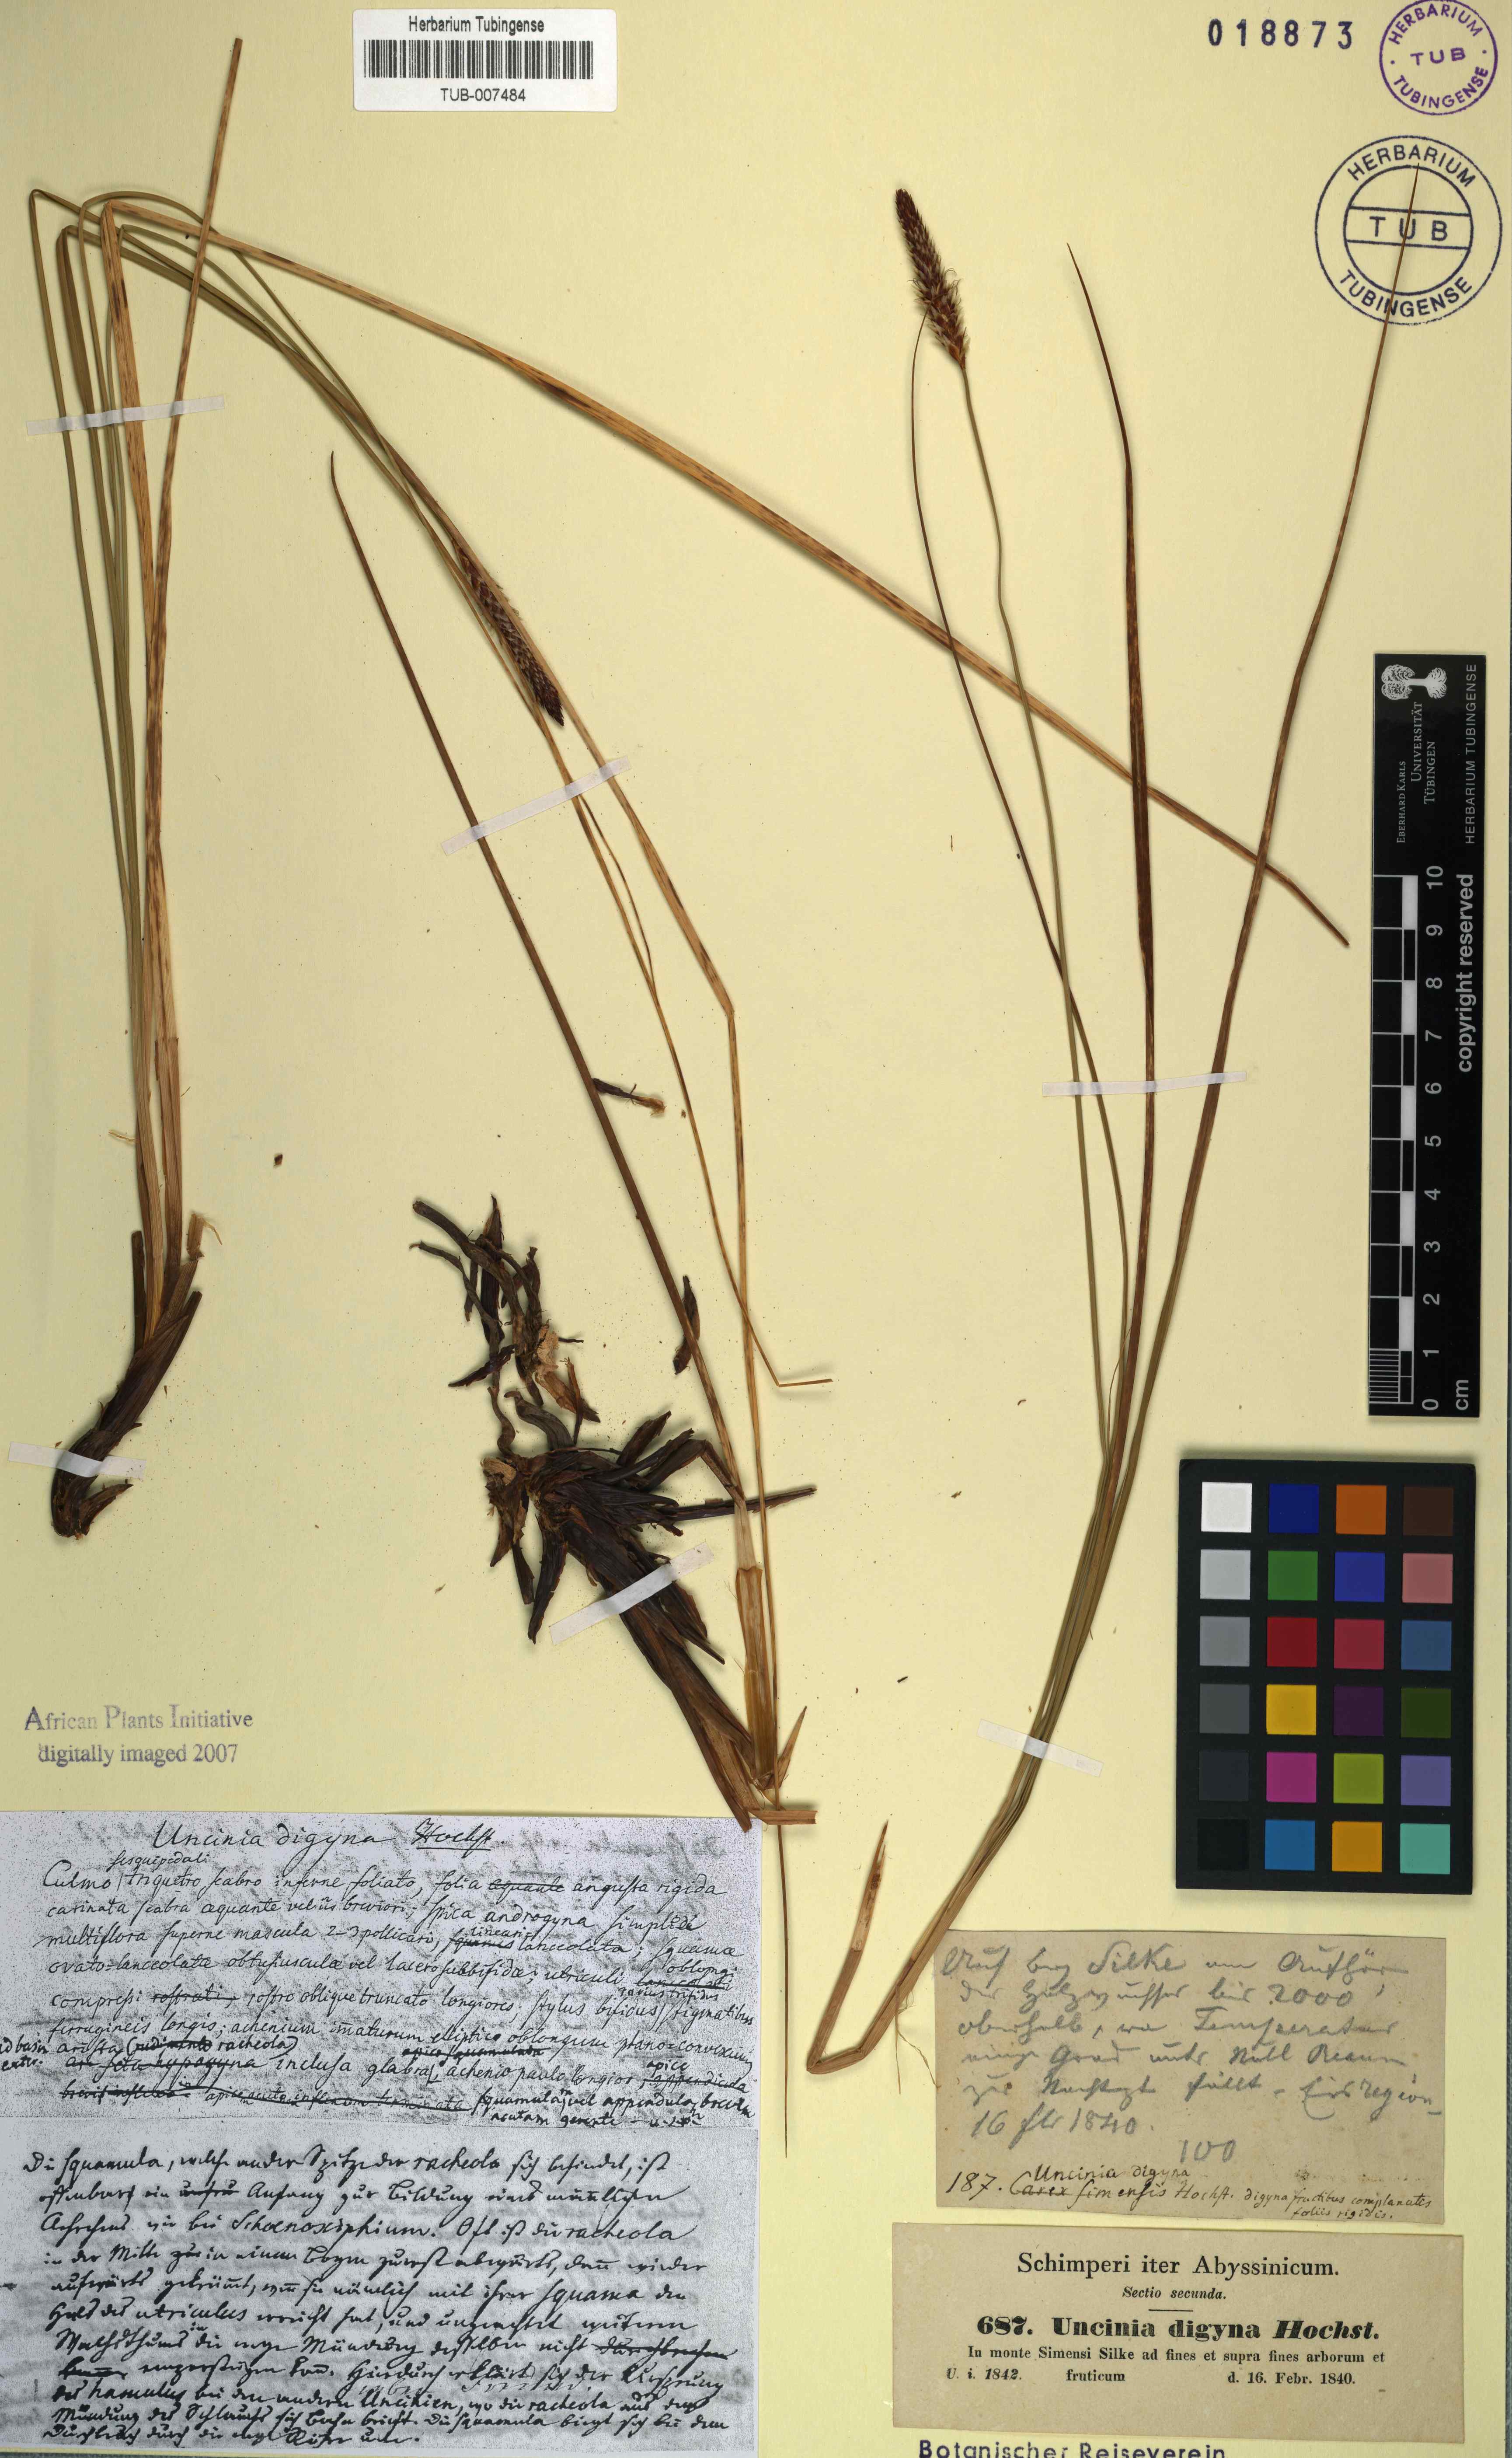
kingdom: Plantae
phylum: Tracheophyta
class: Liliopsida
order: Poales
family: Cyperaceae
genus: Carex
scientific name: Carex monostachya
